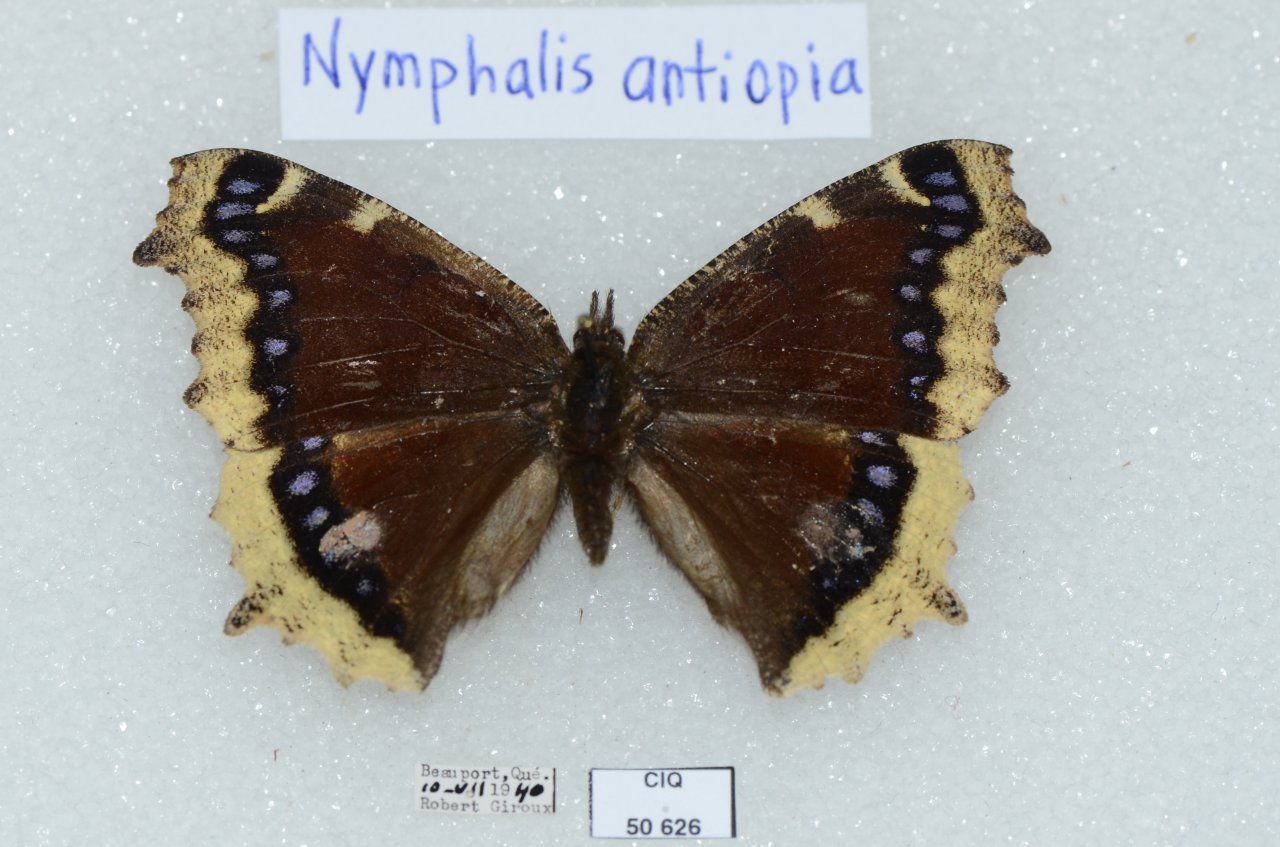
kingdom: Animalia
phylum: Arthropoda
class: Insecta
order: Lepidoptera
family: Nymphalidae
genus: Nymphalis
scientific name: Nymphalis antiopa
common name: Mourning Cloak
